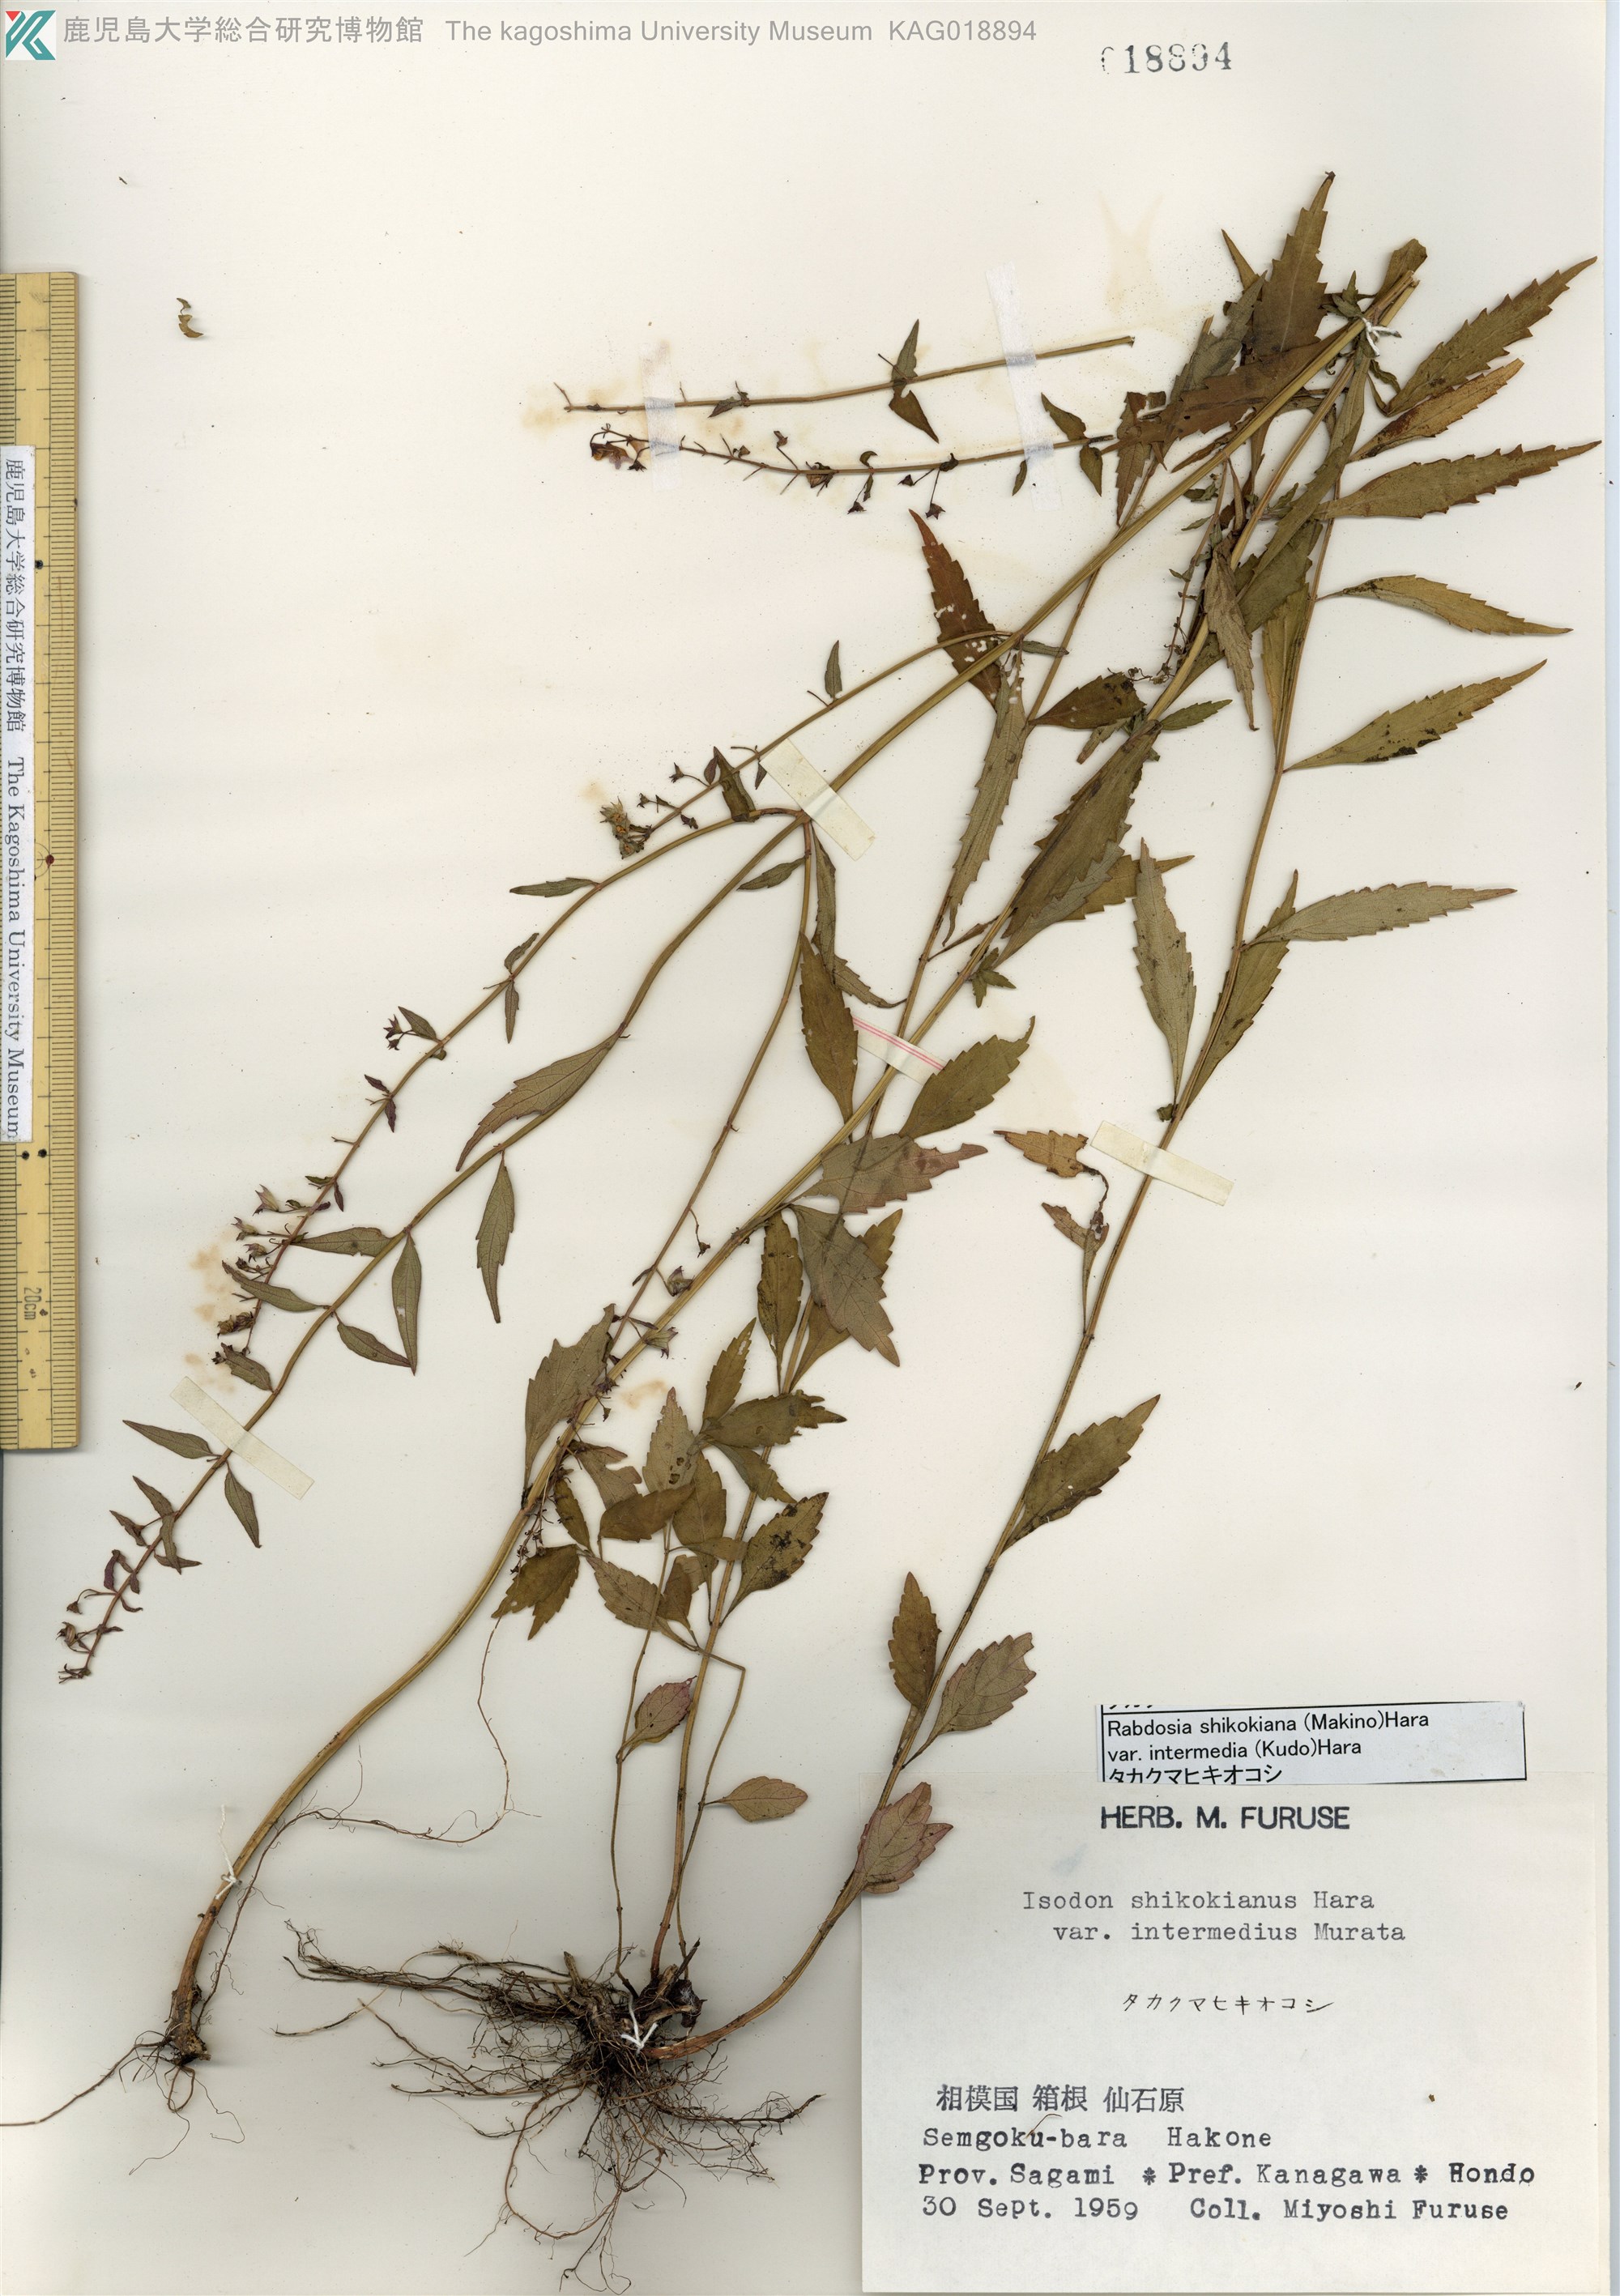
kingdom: Plantae
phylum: Tracheophyta
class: Magnoliopsida
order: Lamiales
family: Lamiaceae
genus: Isodon
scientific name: Isodon shikokianus
